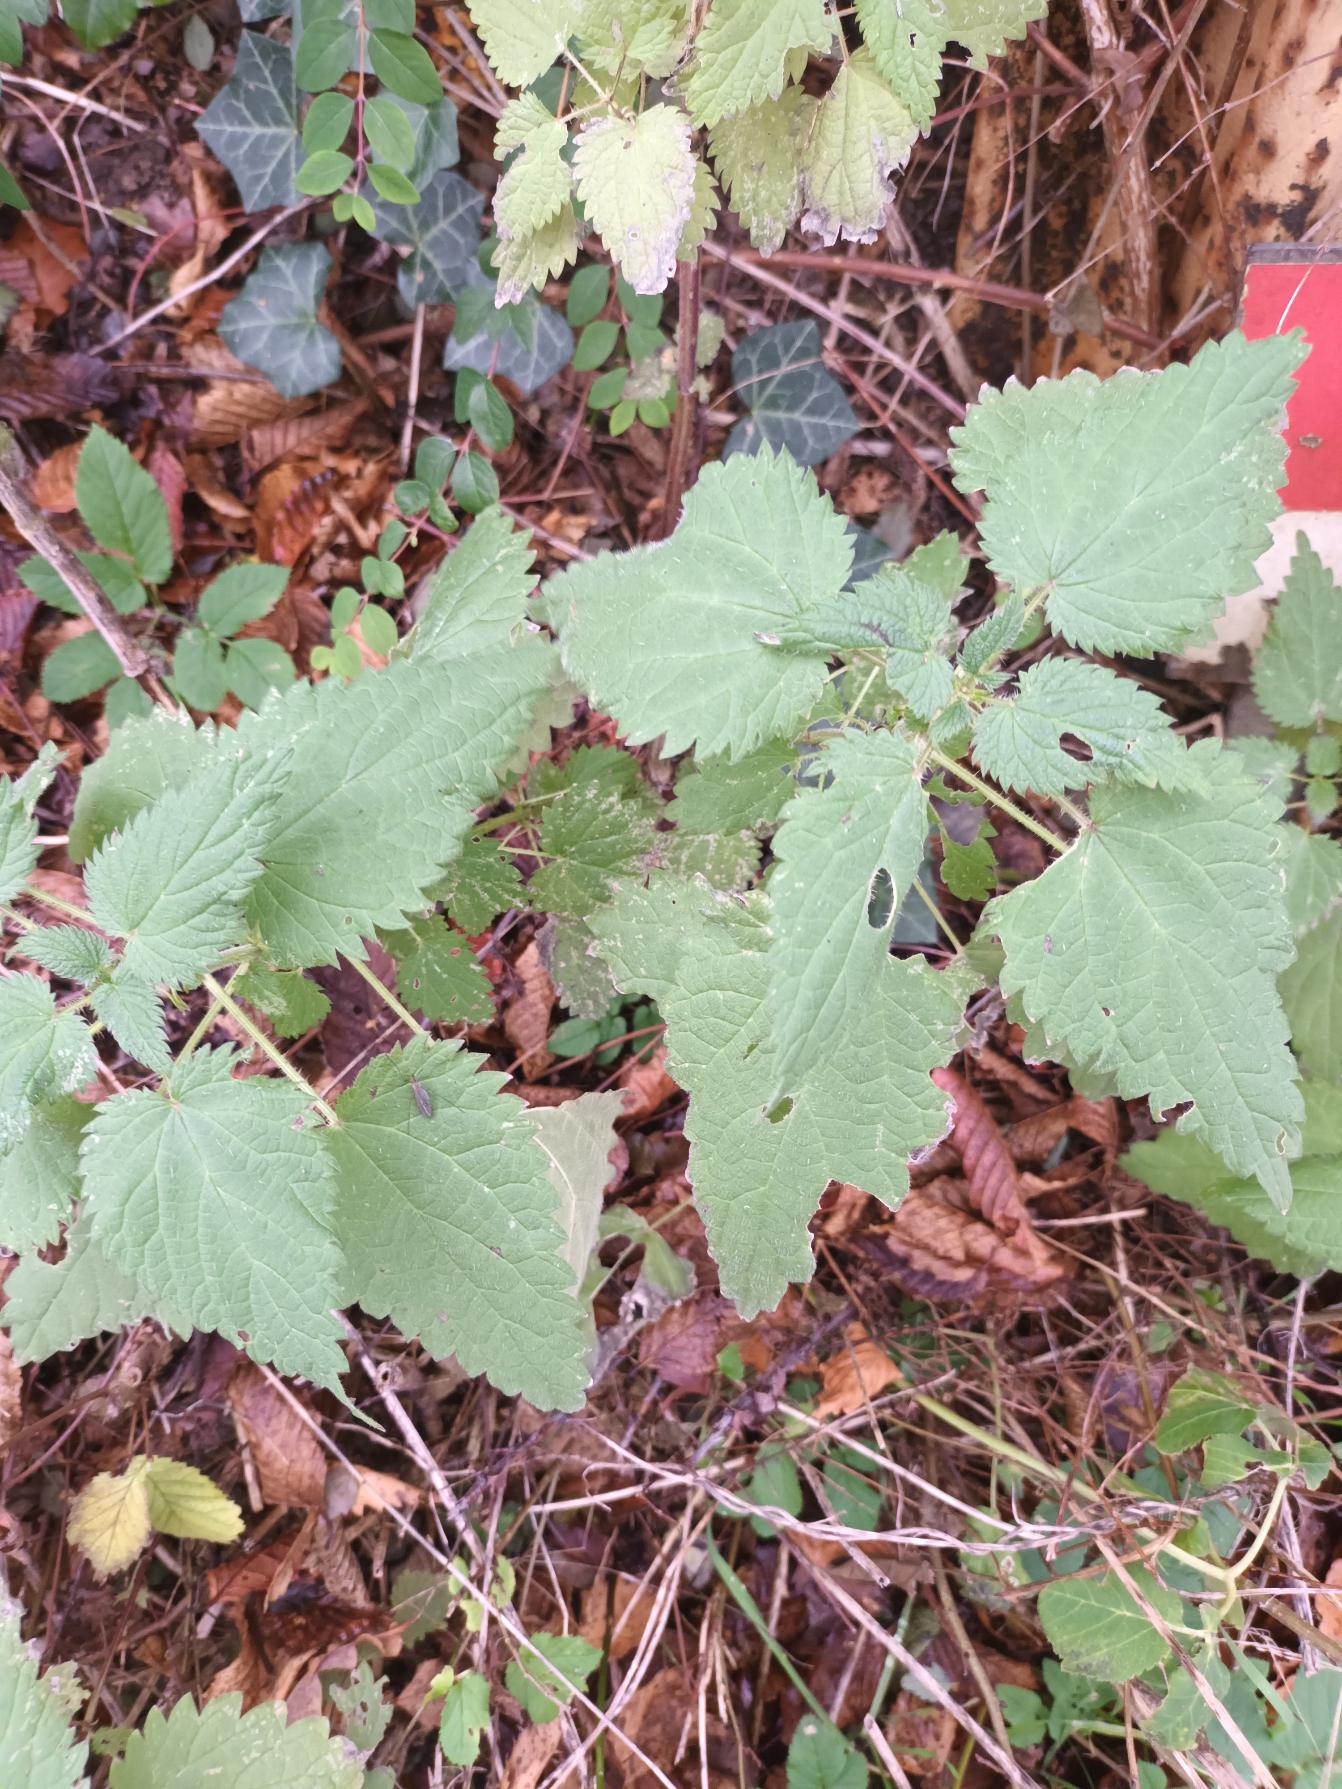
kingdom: Plantae
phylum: Tracheophyta
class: Magnoliopsida
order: Rosales
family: Urticaceae
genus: Urtica
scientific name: Urtica dioica
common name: Stor nælde
